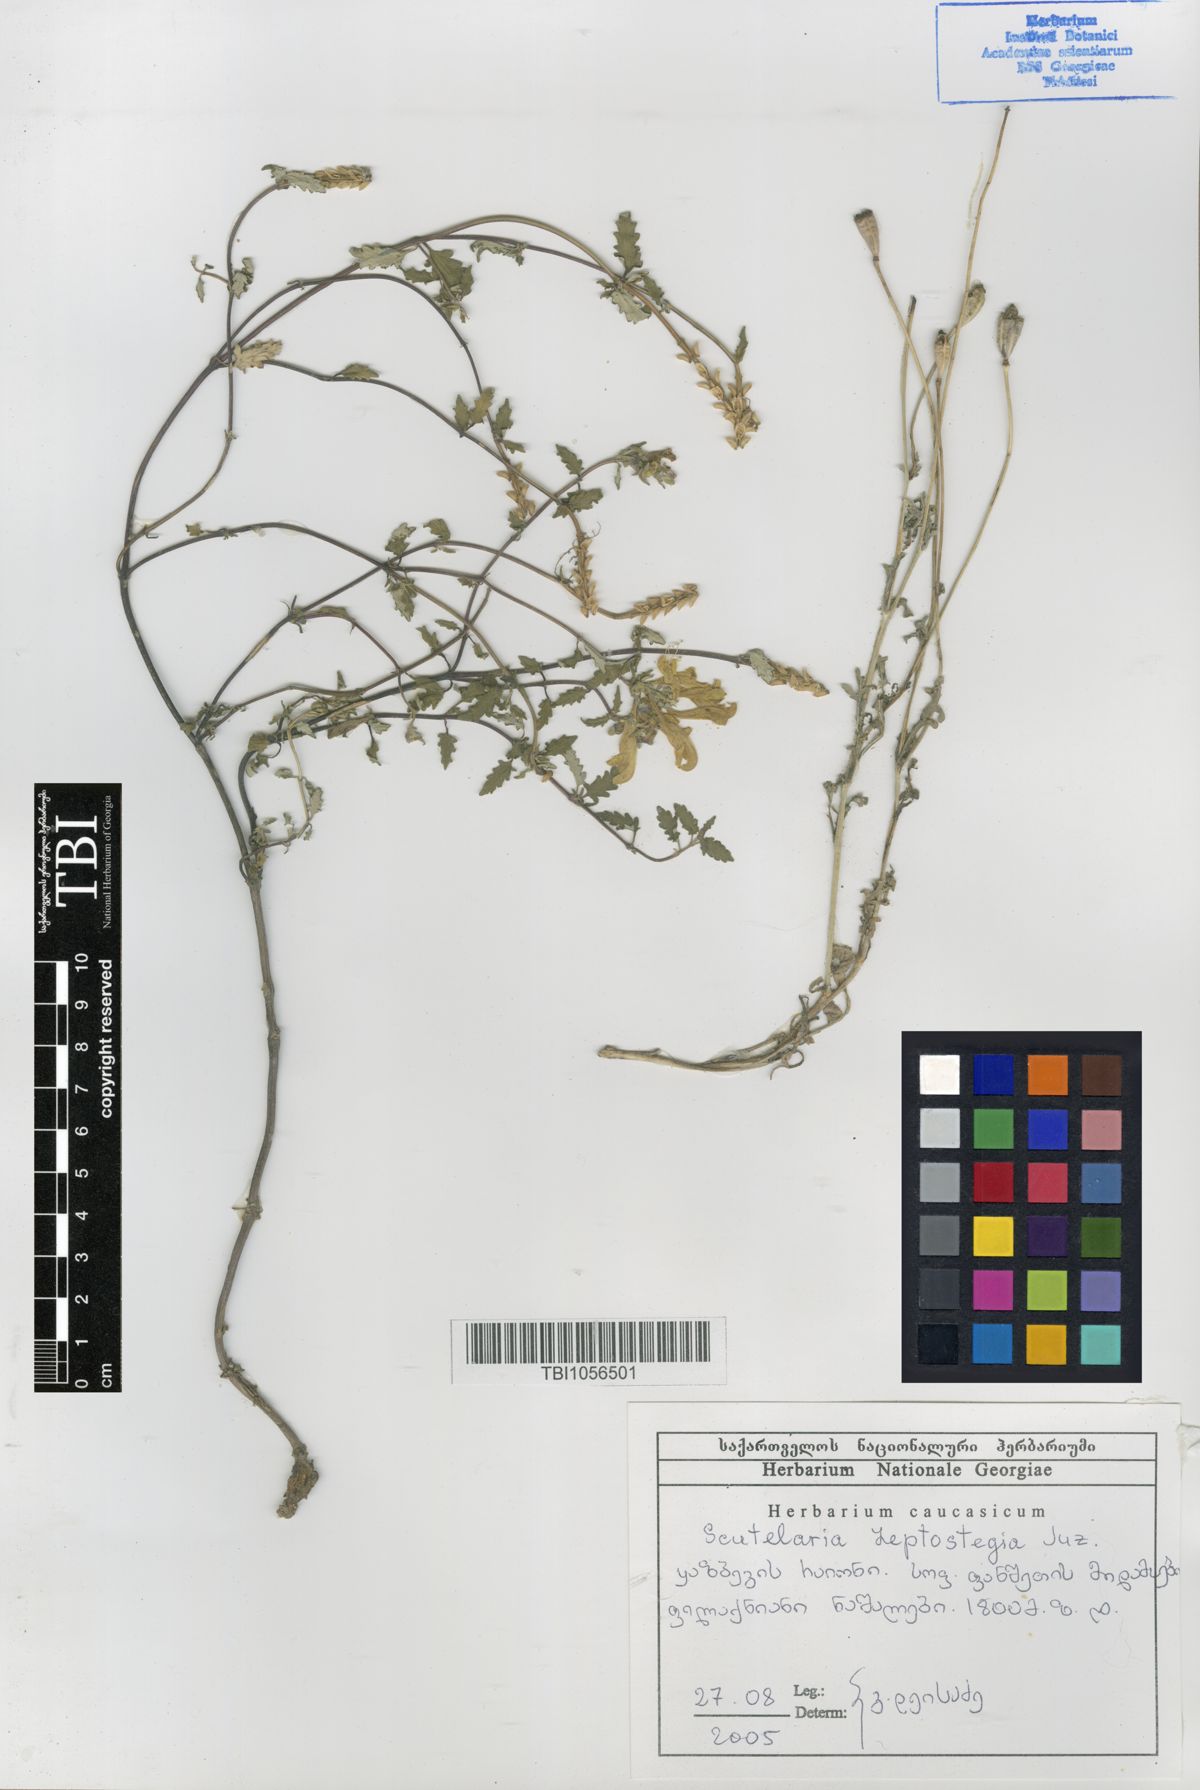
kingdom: Plantae
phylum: Tracheophyta
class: Magnoliopsida
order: Lamiales
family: Lamiaceae
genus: Scutellaria
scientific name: Scutellaria leptostegia
